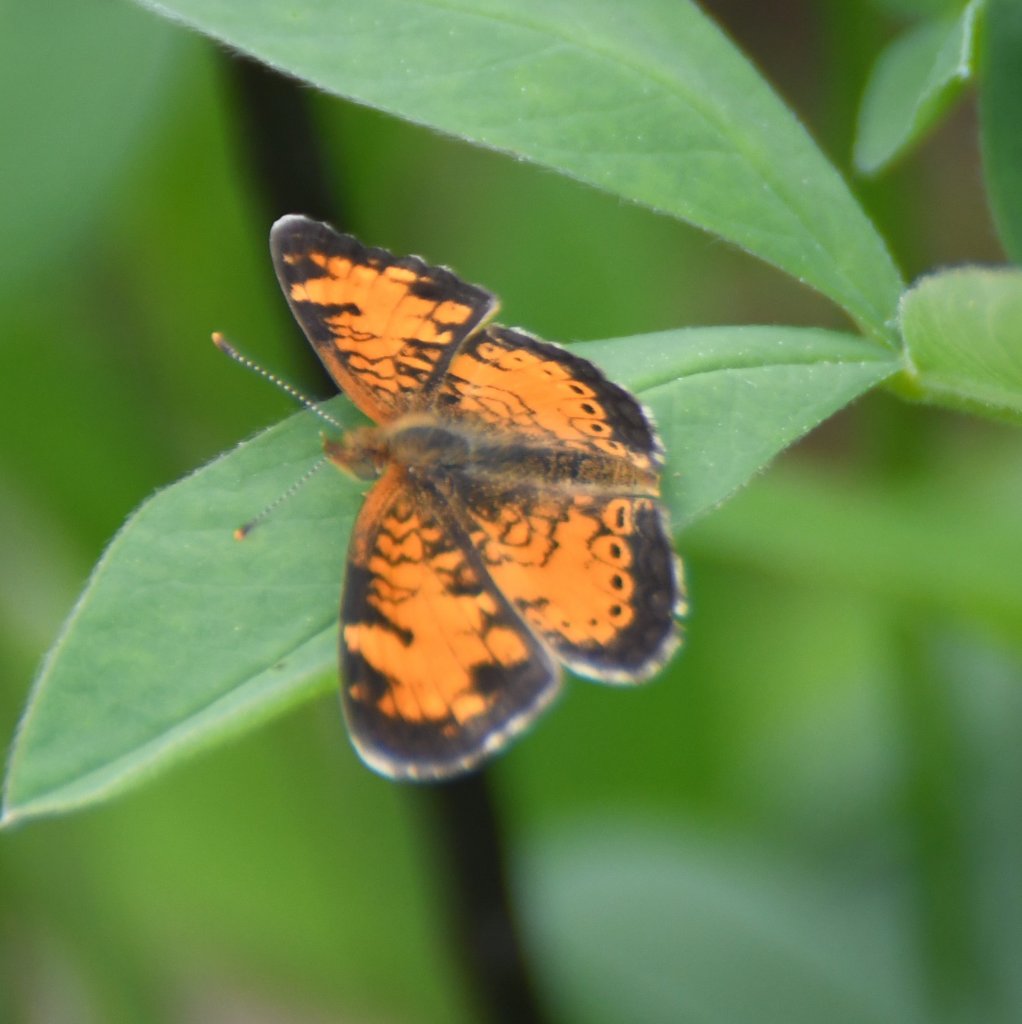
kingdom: Animalia
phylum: Arthropoda
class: Insecta
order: Lepidoptera
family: Nymphalidae
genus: Phyciodes
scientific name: Phyciodes tharos
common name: Northern Crescent
